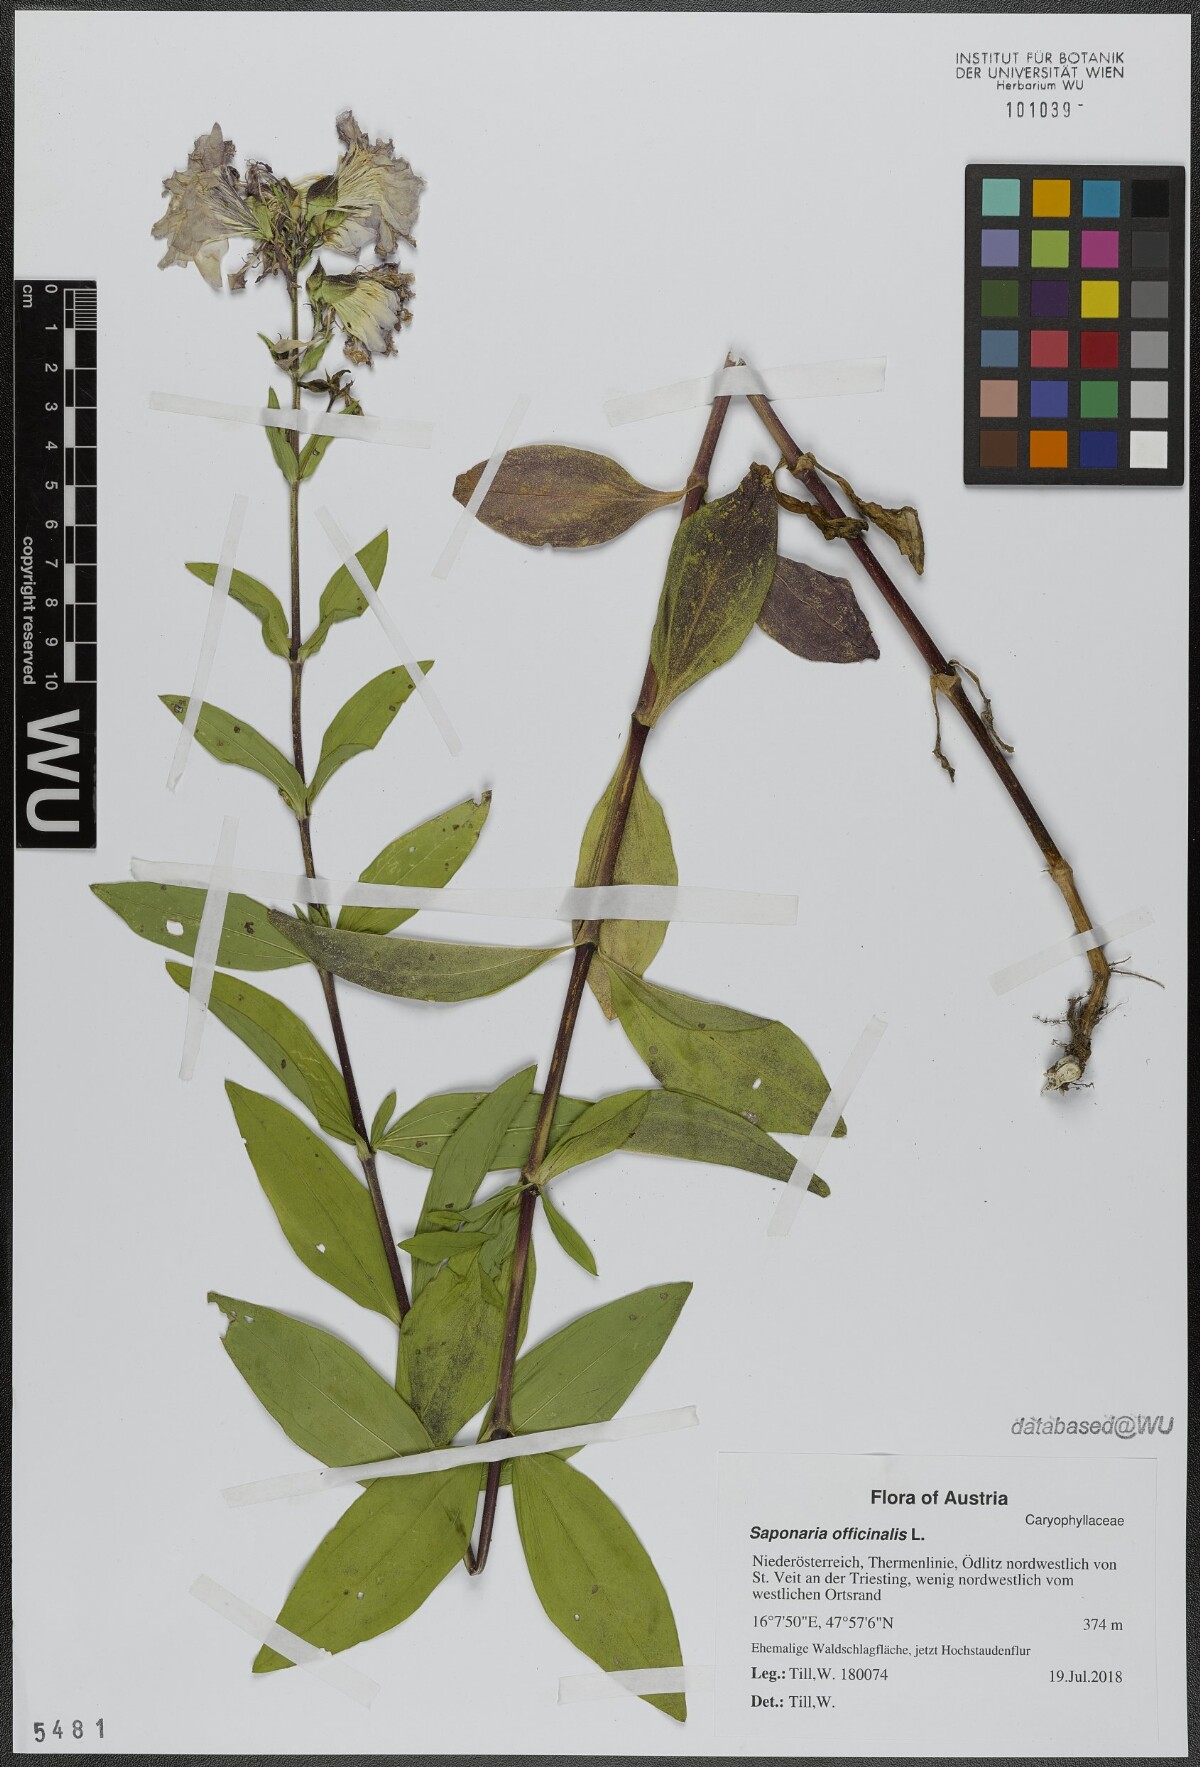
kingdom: Plantae
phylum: Tracheophyta
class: Magnoliopsida
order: Caryophyllales
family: Caryophyllaceae
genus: Saponaria
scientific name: Saponaria officinalis
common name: Soapwort
